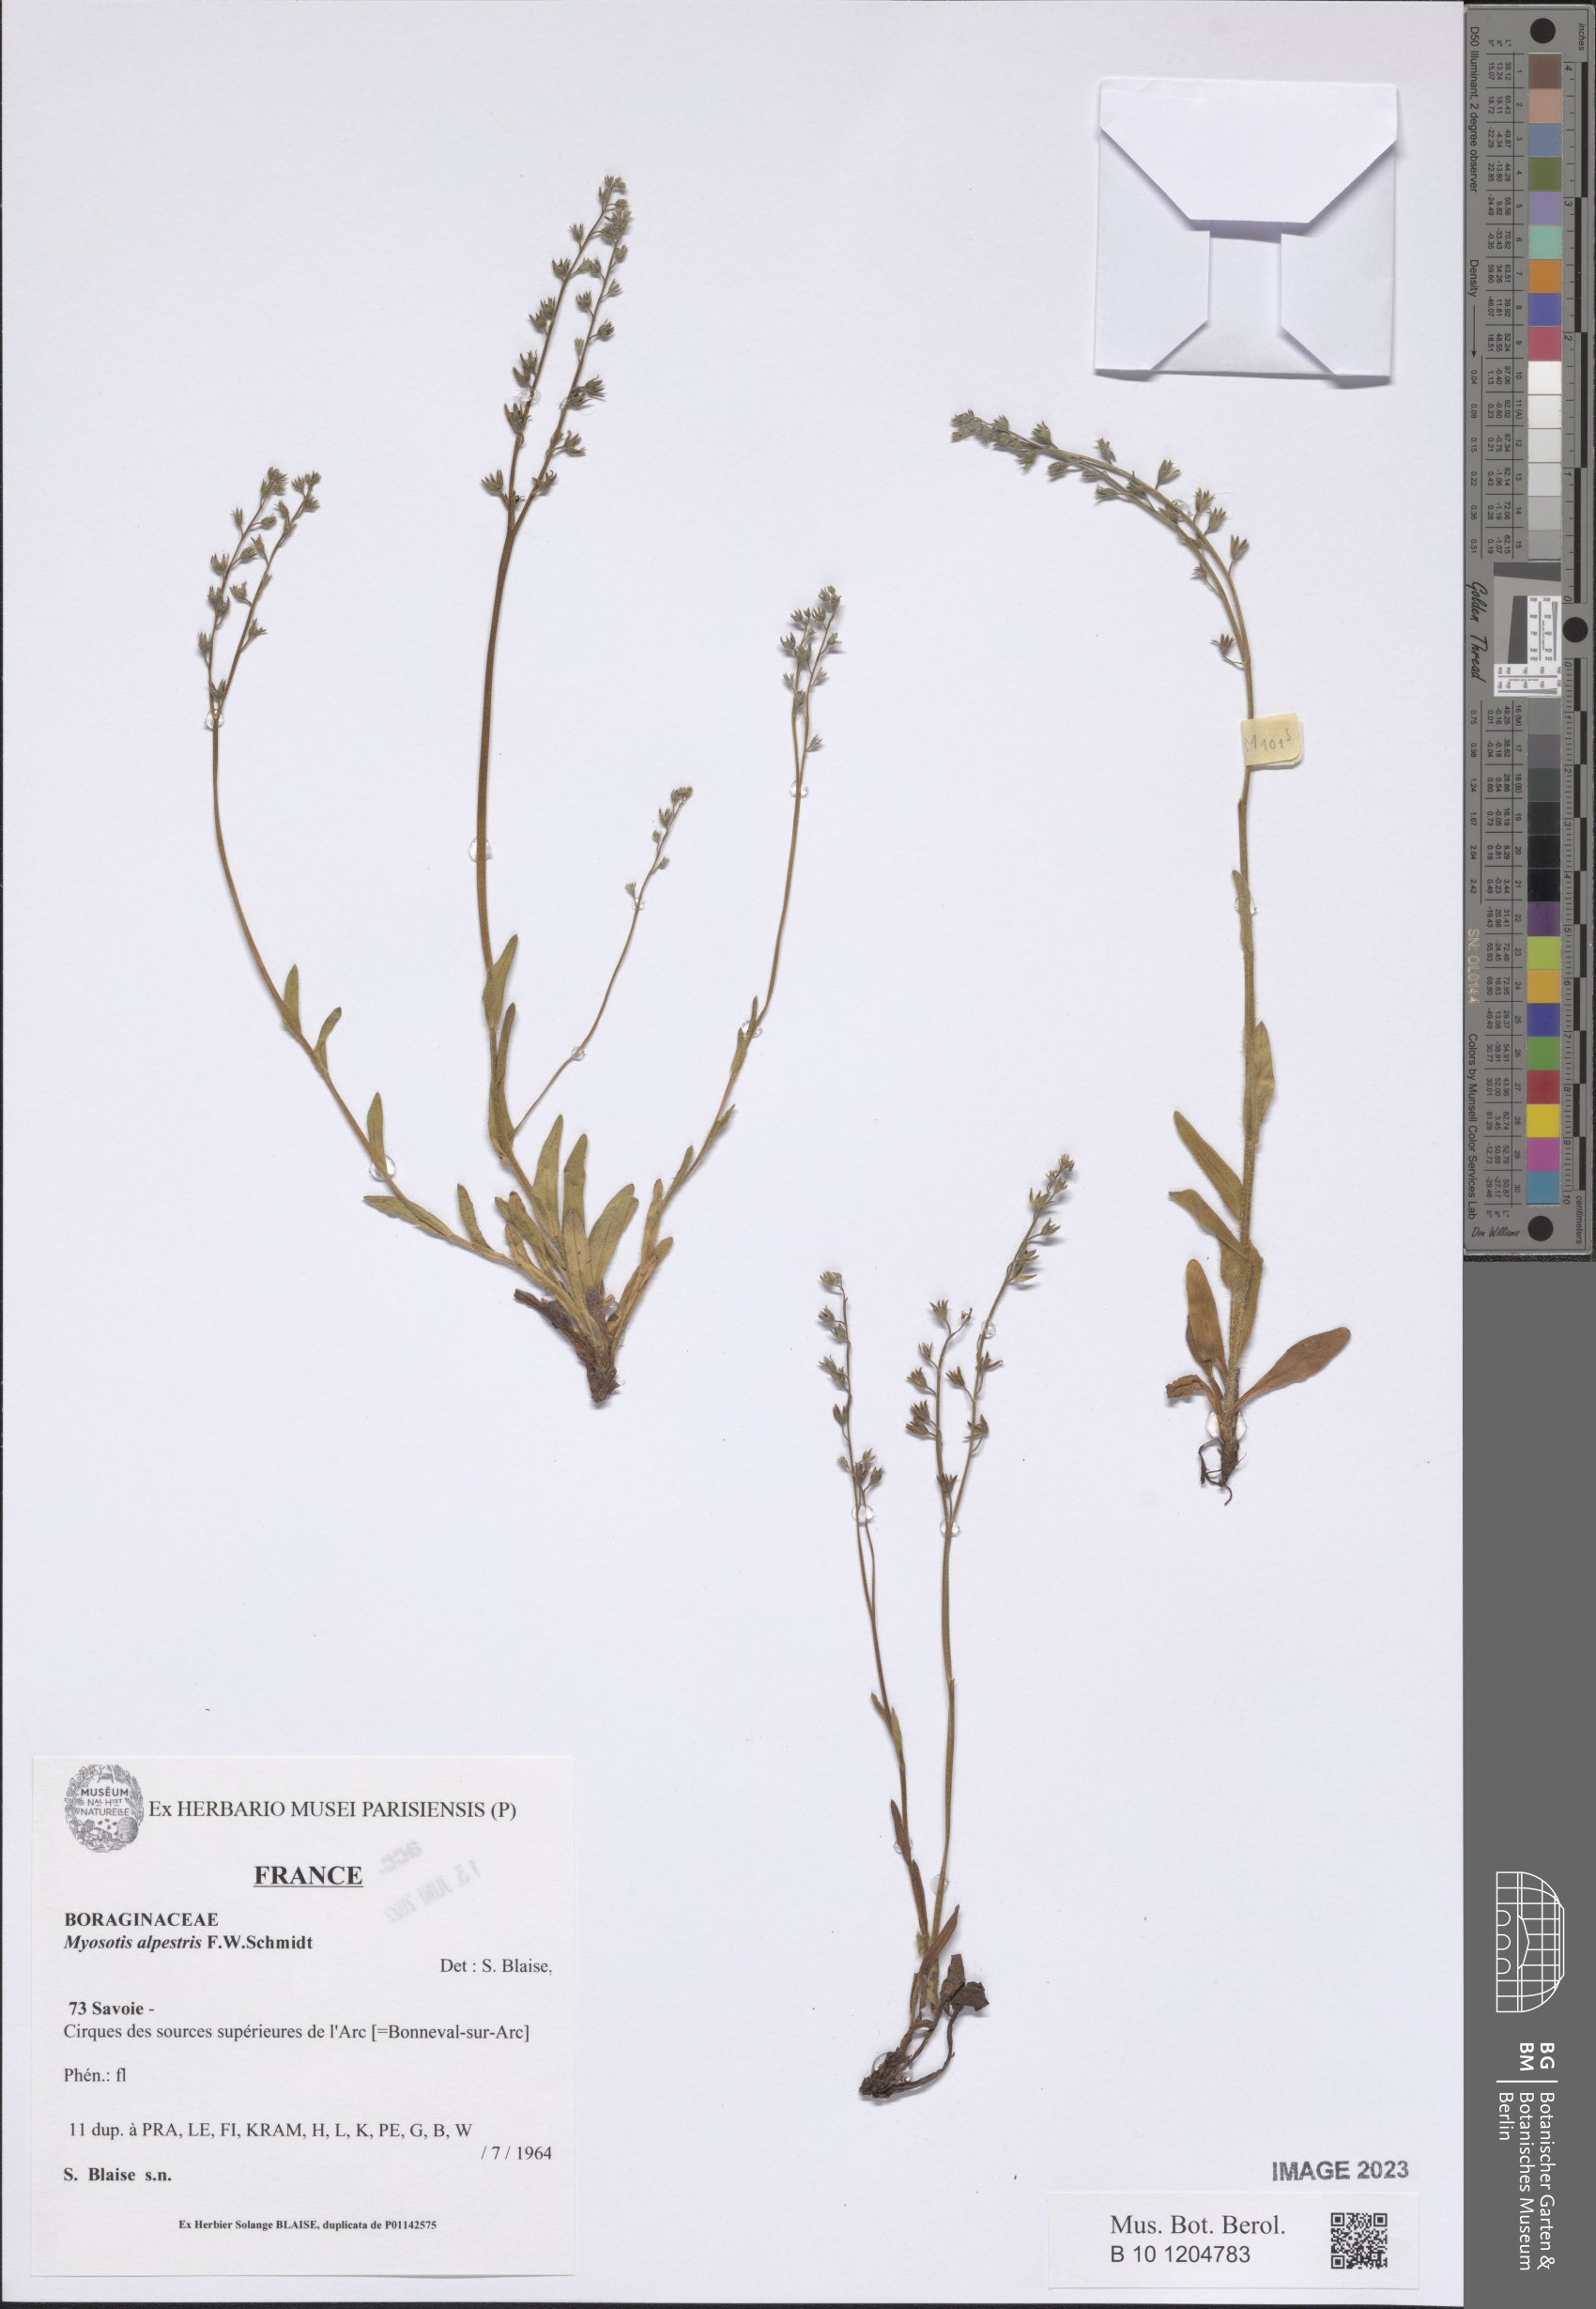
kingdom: Plantae
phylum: Tracheophyta
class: Magnoliopsida
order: Boraginales
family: Boraginaceae
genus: Myosotis
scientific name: Myosotis alpestris
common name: Alpine forget-me-not
